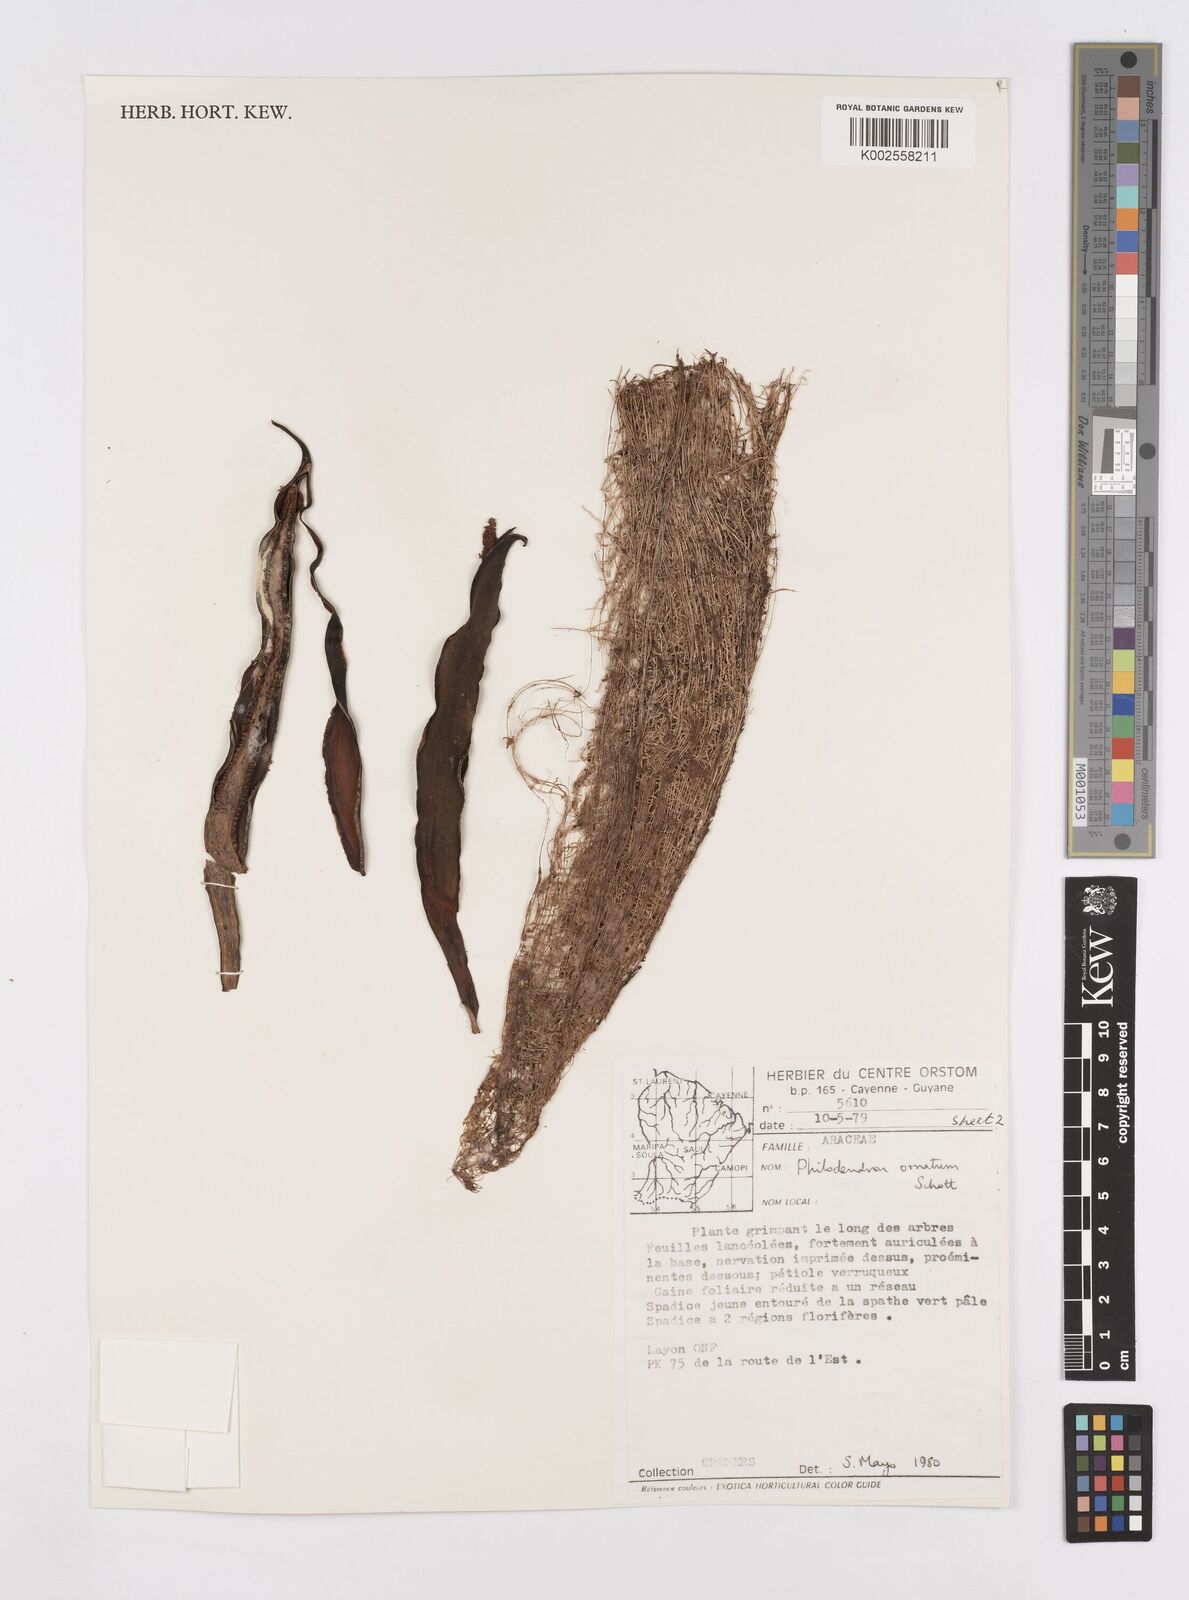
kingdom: Plantae
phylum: Tracheophyta
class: Liliopsida
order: Alismatales
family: Araceae
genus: Philodendron
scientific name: Philodendron ornatum
